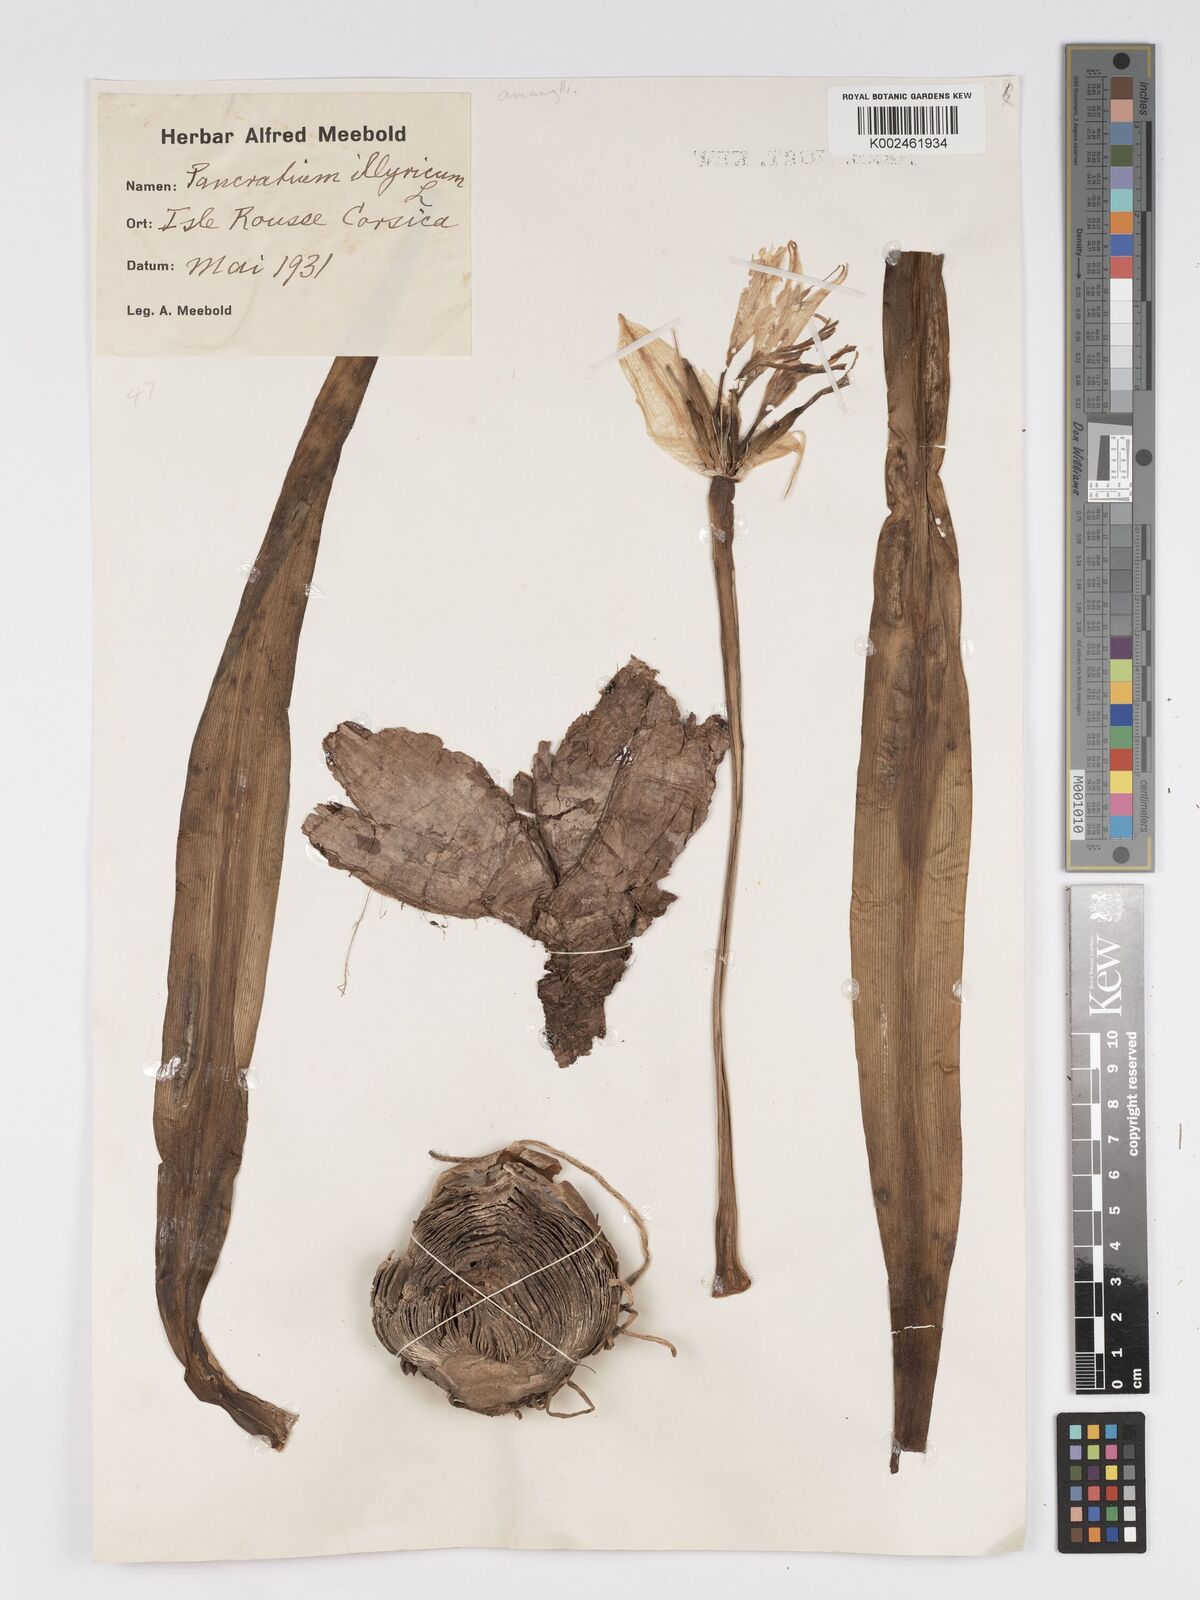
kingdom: Plantae
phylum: Tracheophyta
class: Liliopsida
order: Asparagales
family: Amaryllidaceae
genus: Pancratium
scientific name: Pancratium illyricum
